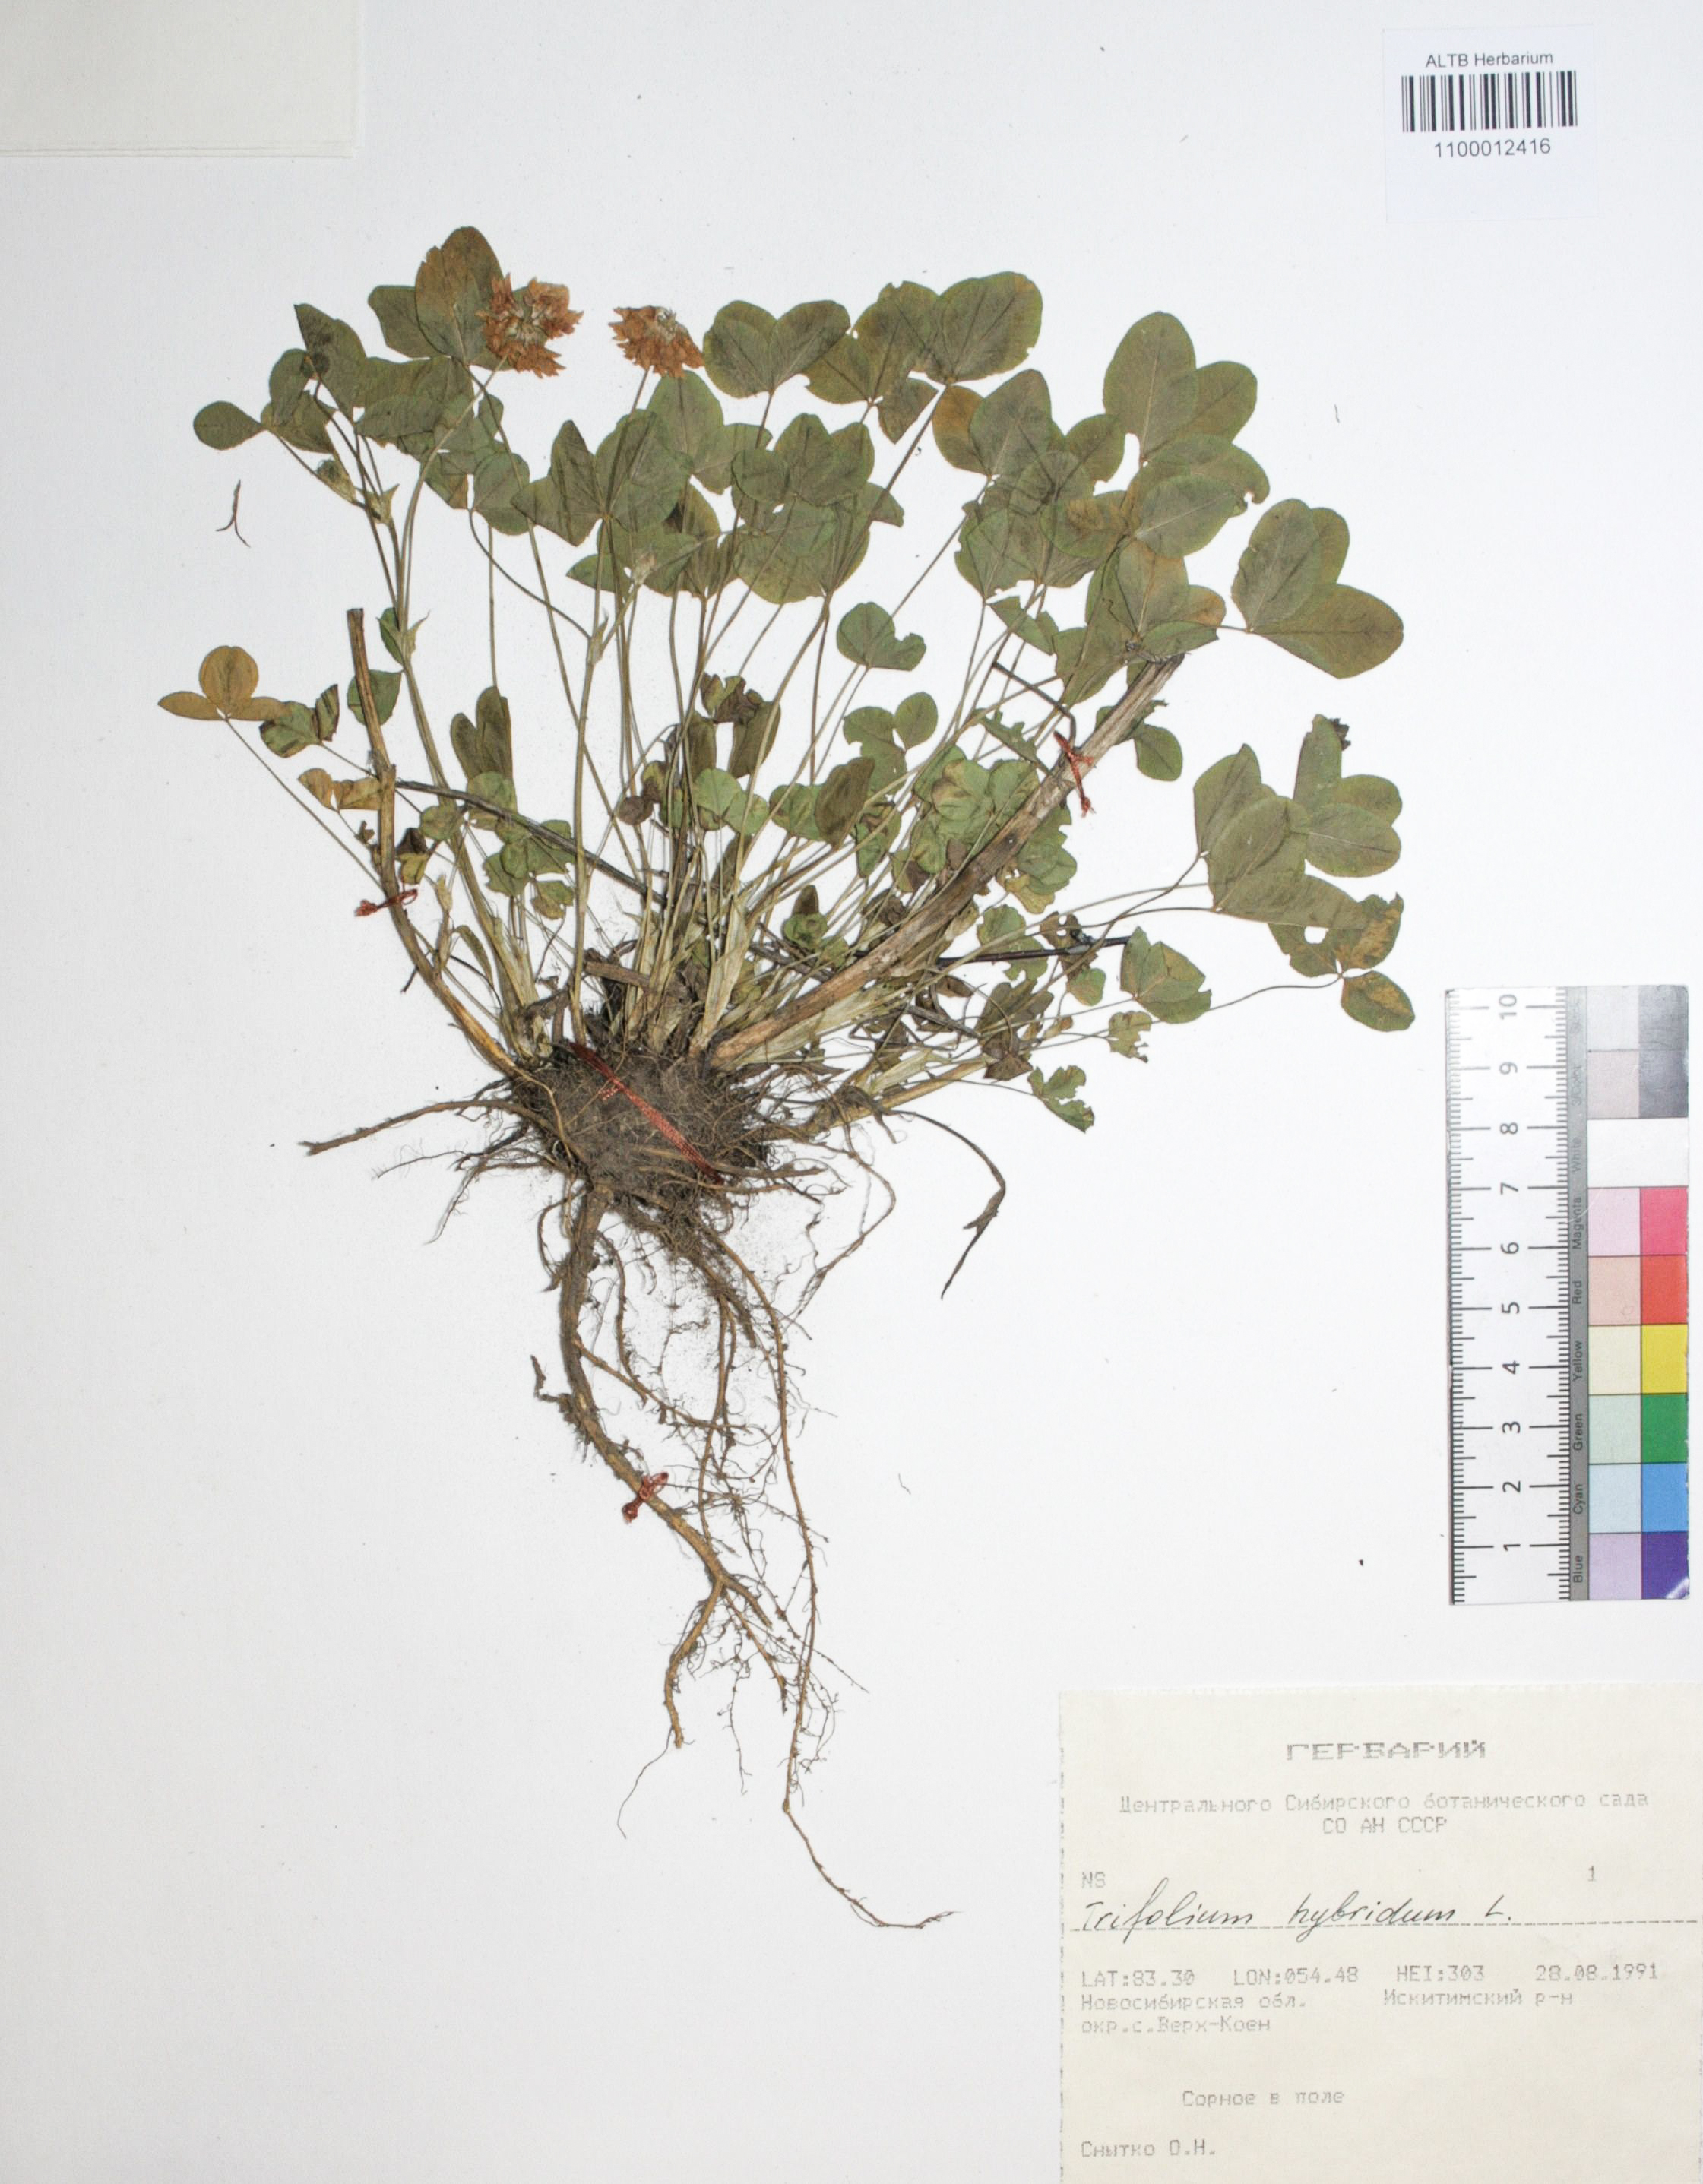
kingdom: Plantae
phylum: Tracheophyta
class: Magnoliopsida
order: Fabales
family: Fabaceae
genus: Trifolium
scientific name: Trifolium hybridum
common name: Alsike clover
